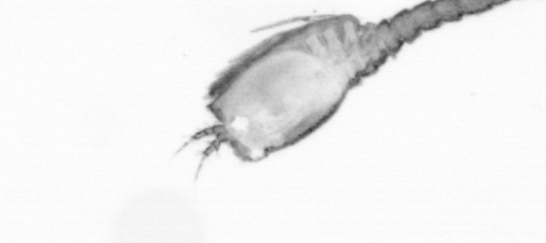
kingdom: Animalia
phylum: Arthropoda
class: Copepoda
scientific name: Copepoda
